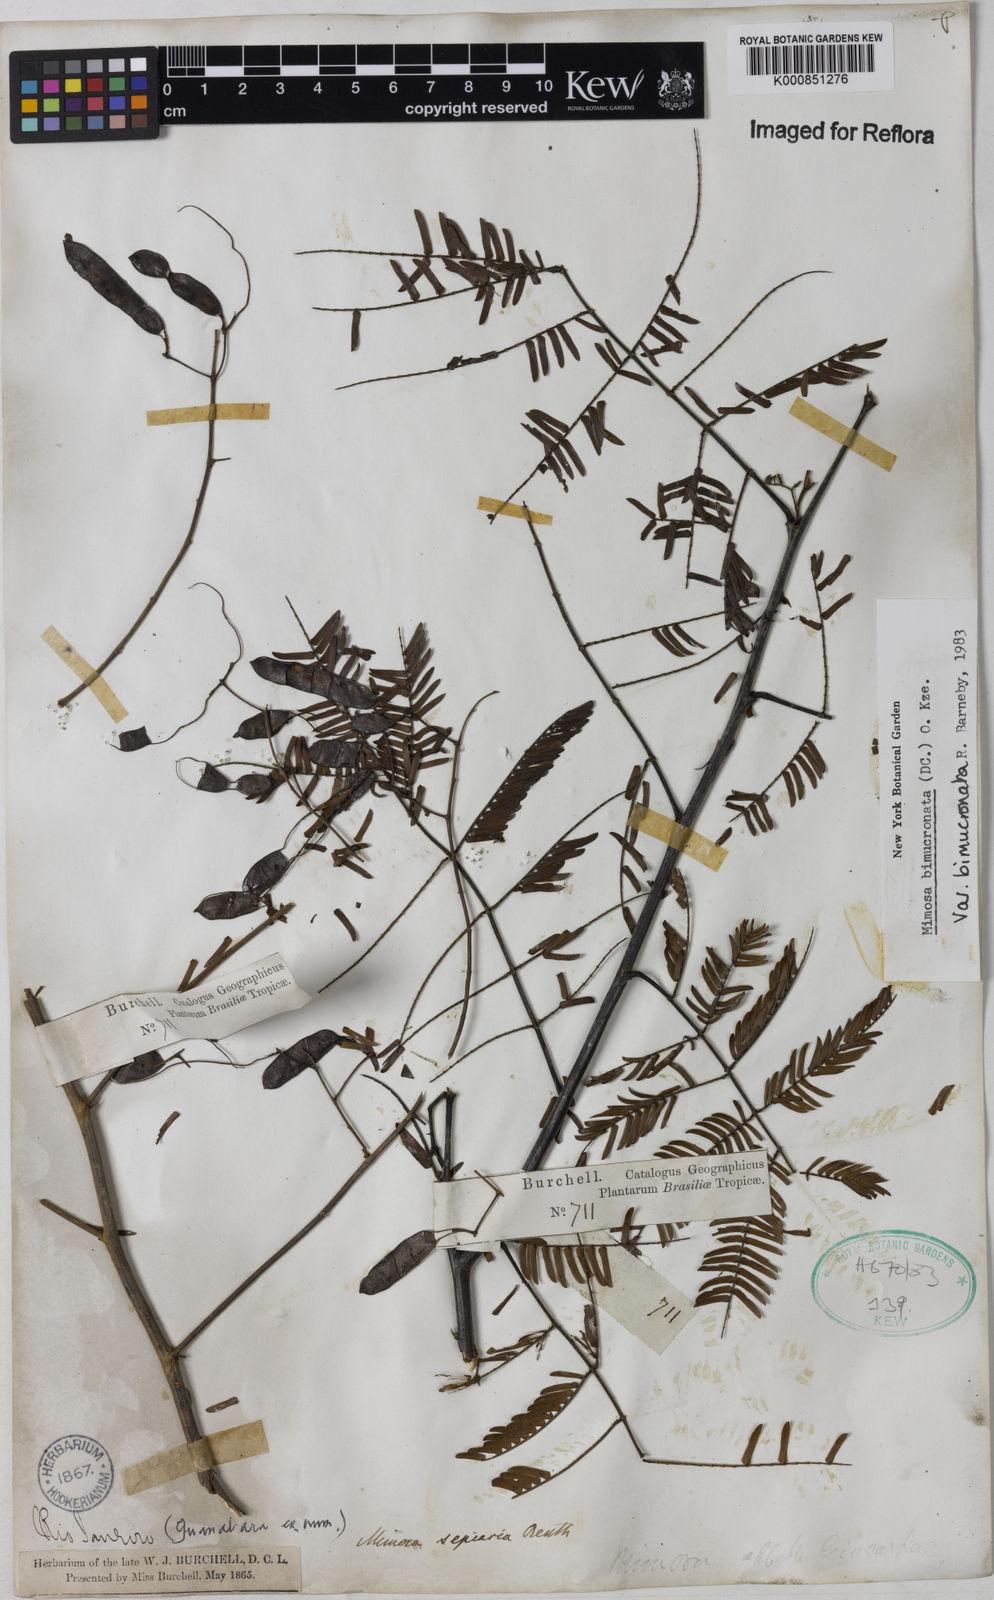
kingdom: Plantae
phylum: Tracheophyta
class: Magnoliopsida
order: Fabales
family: Fabaceae
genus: Mimosa
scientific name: Mimosa bimucronata
